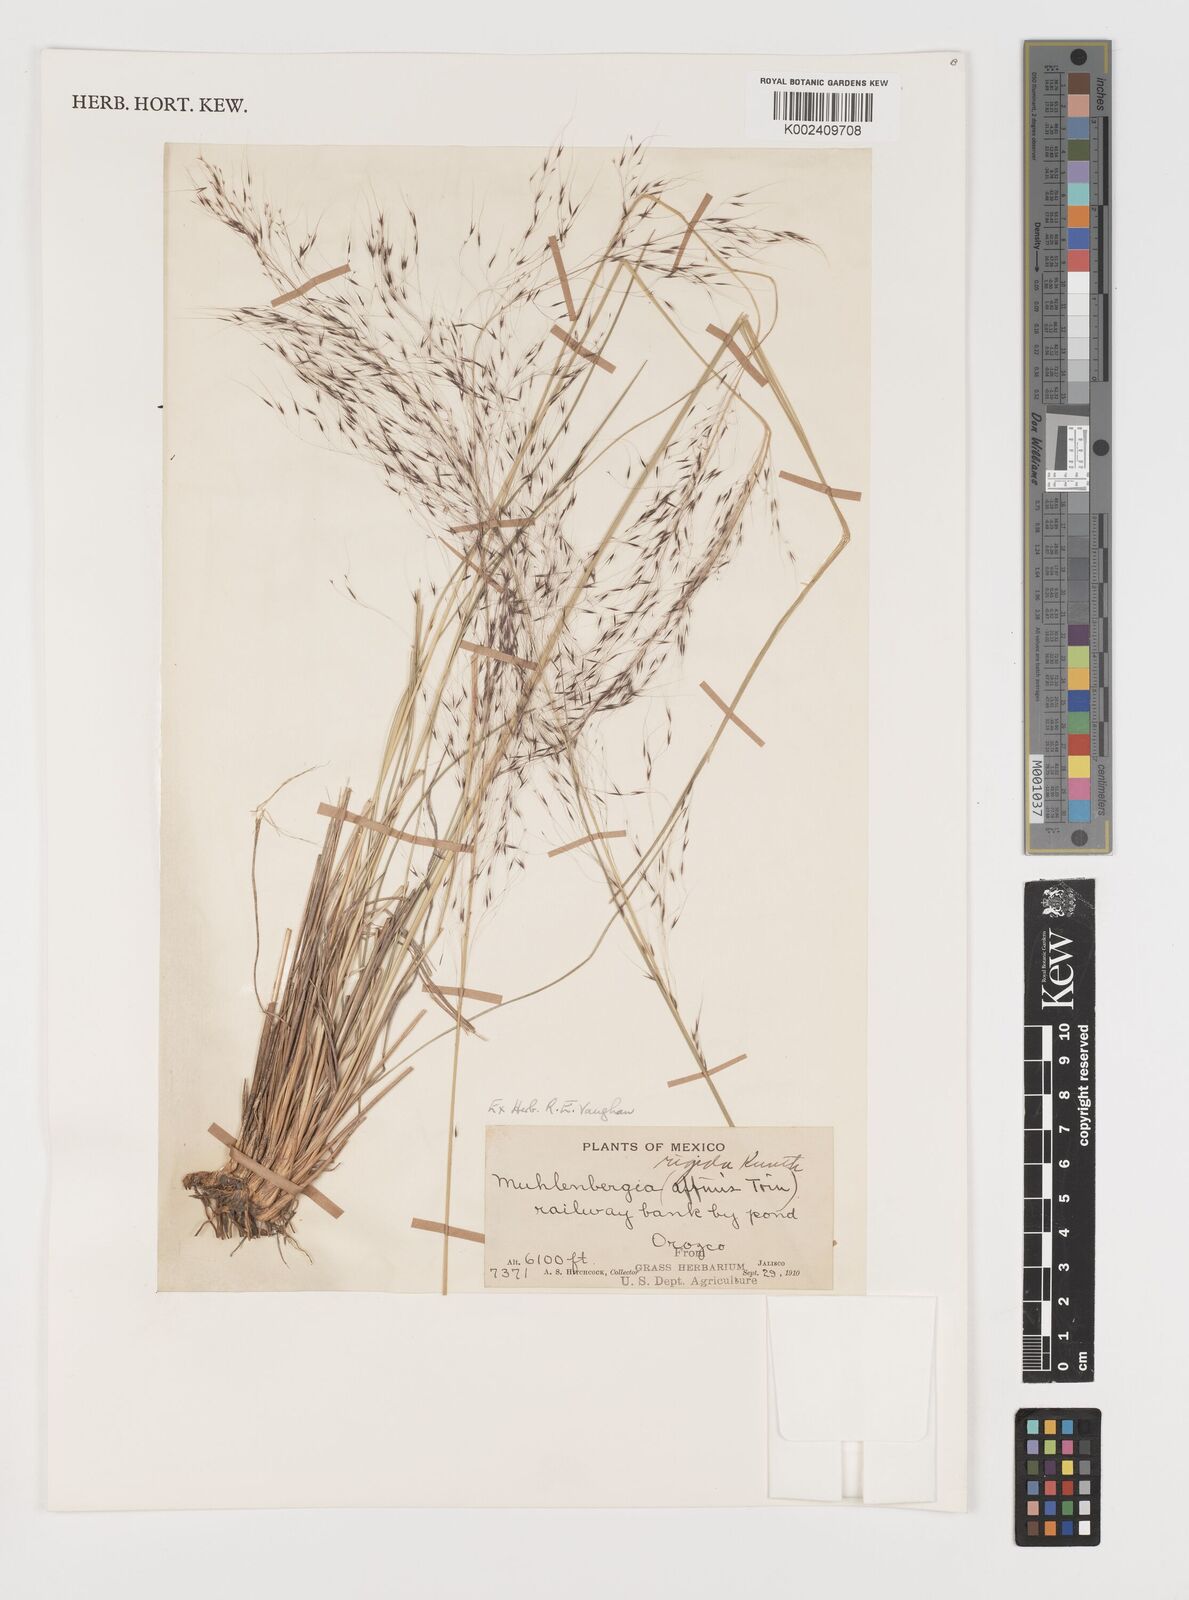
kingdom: Plantae
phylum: Tracheophyta
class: Liliopsida
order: Poales
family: Poaceae
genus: Muhlenbergia
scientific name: Muhlenbergia rigida
